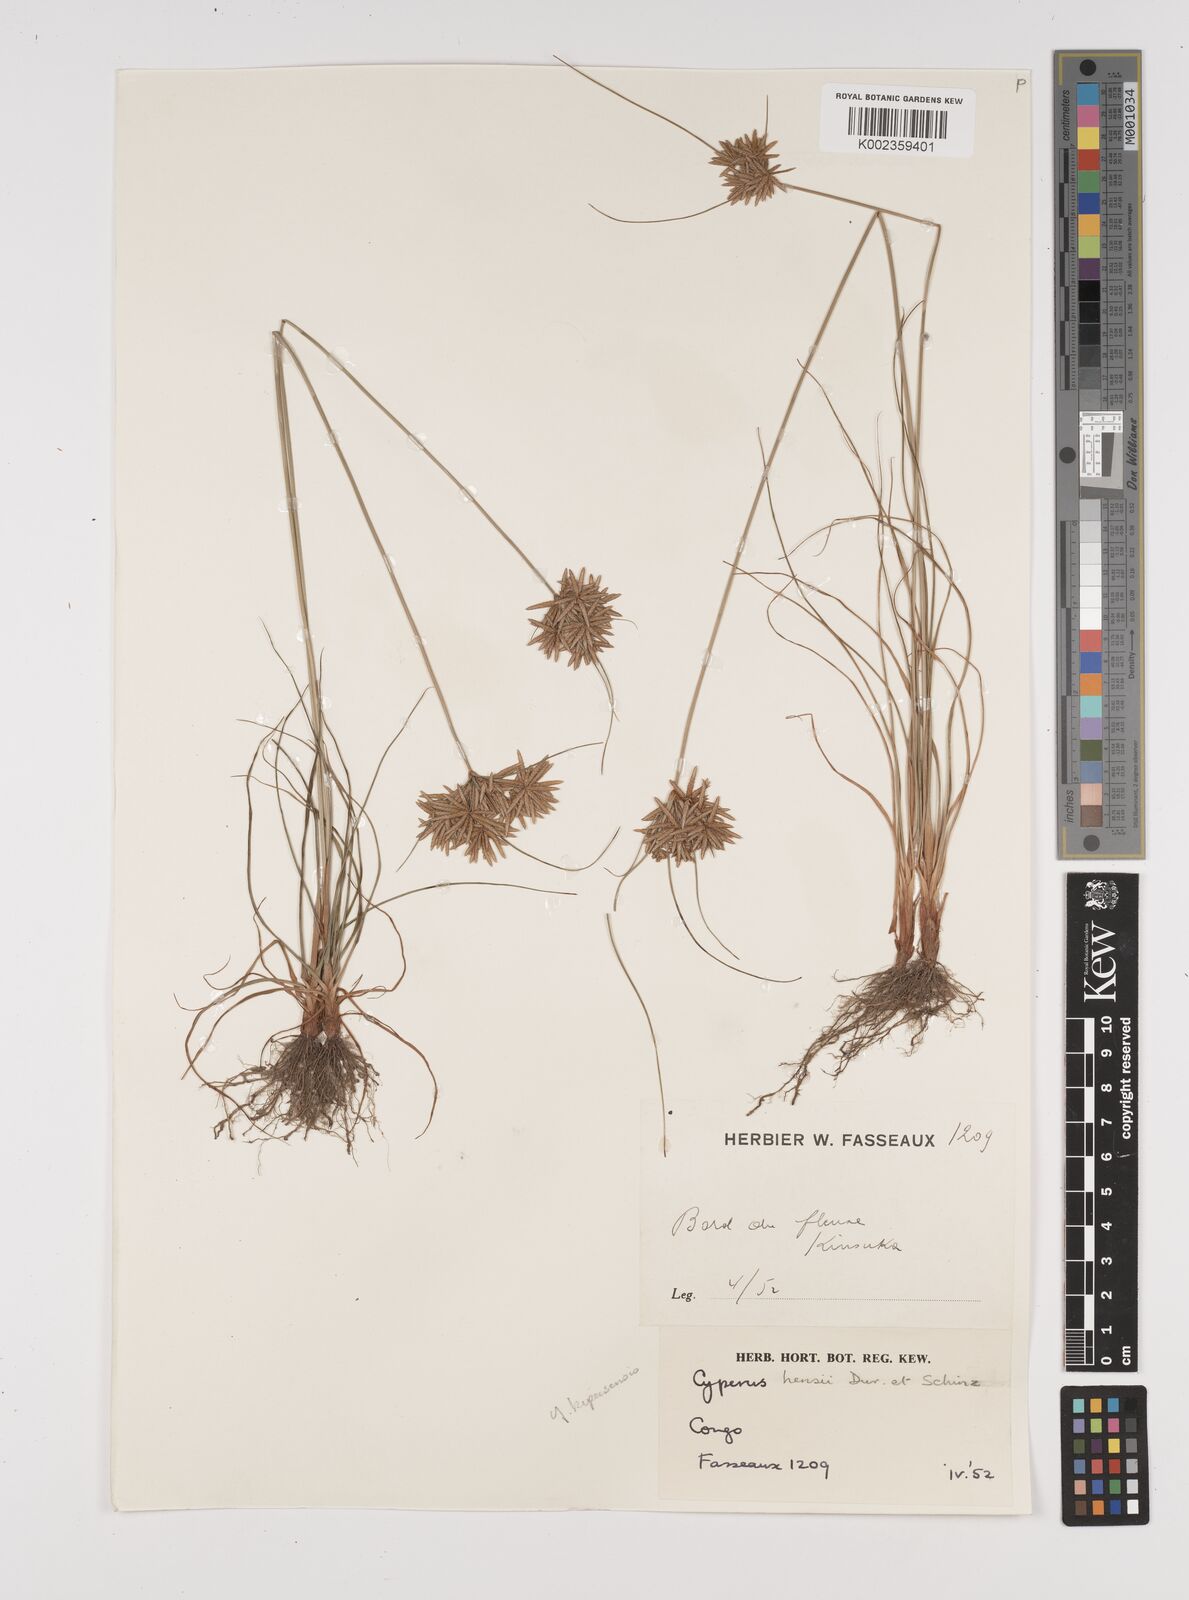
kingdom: Plantae
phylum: Tracheophyta
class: Liliopsida
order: Poales
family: Cyperaceae
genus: Cyperus
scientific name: Cyperus
